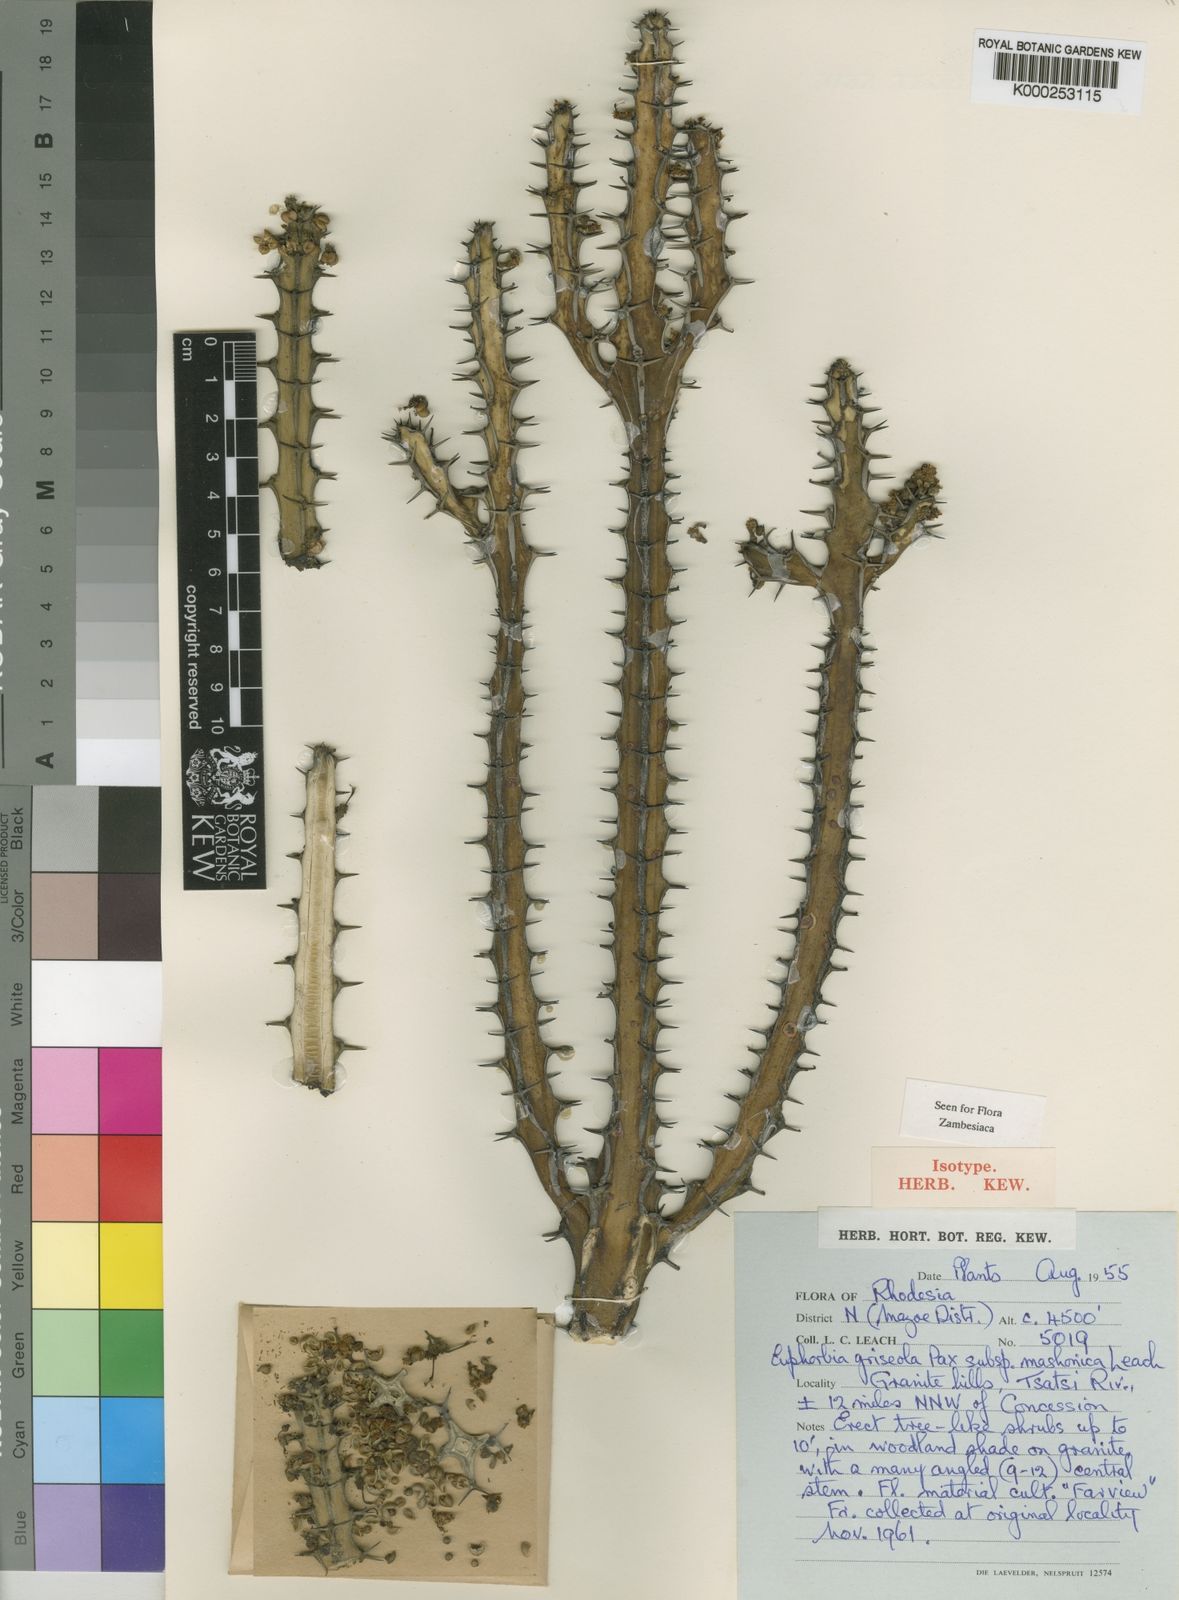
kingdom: Plantae
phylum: Tracheophyta
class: Magnoliopsida
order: Malpighiales
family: Euphorbiaceae
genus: Euphorbia
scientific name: Euphorbia griseola
